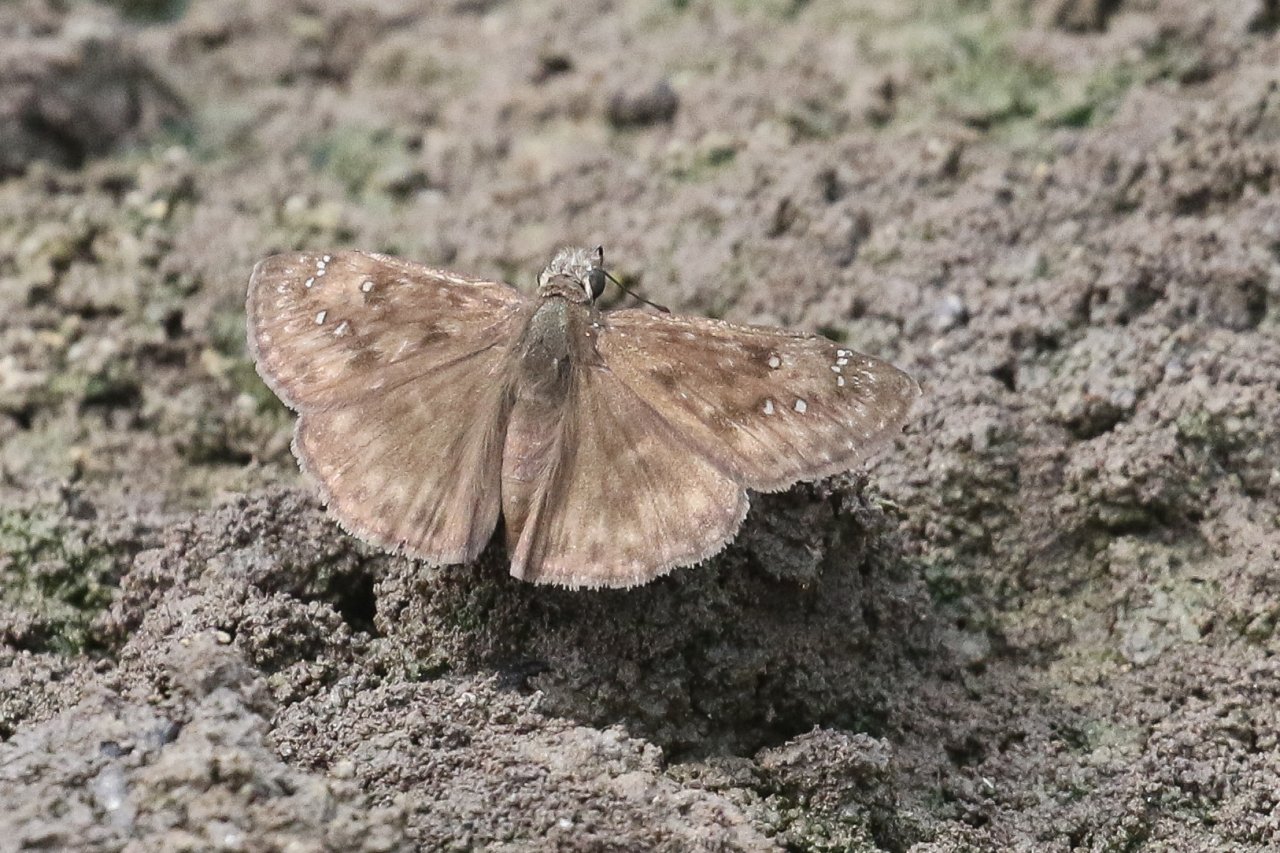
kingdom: Animalia
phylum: Arthropoda
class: Insecta
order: Lepidoptera
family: Hesperiidae
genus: Gesta
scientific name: Gesta
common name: Horace's Duskywing
